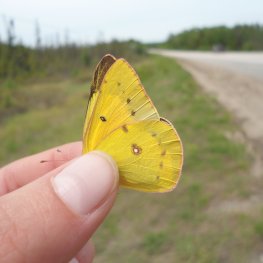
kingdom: Animalia
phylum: Arthropoda
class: Insecta
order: Lepidoptera
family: Pieridae
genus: Colias
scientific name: Colias eurytheme
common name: Orange Sulphur
